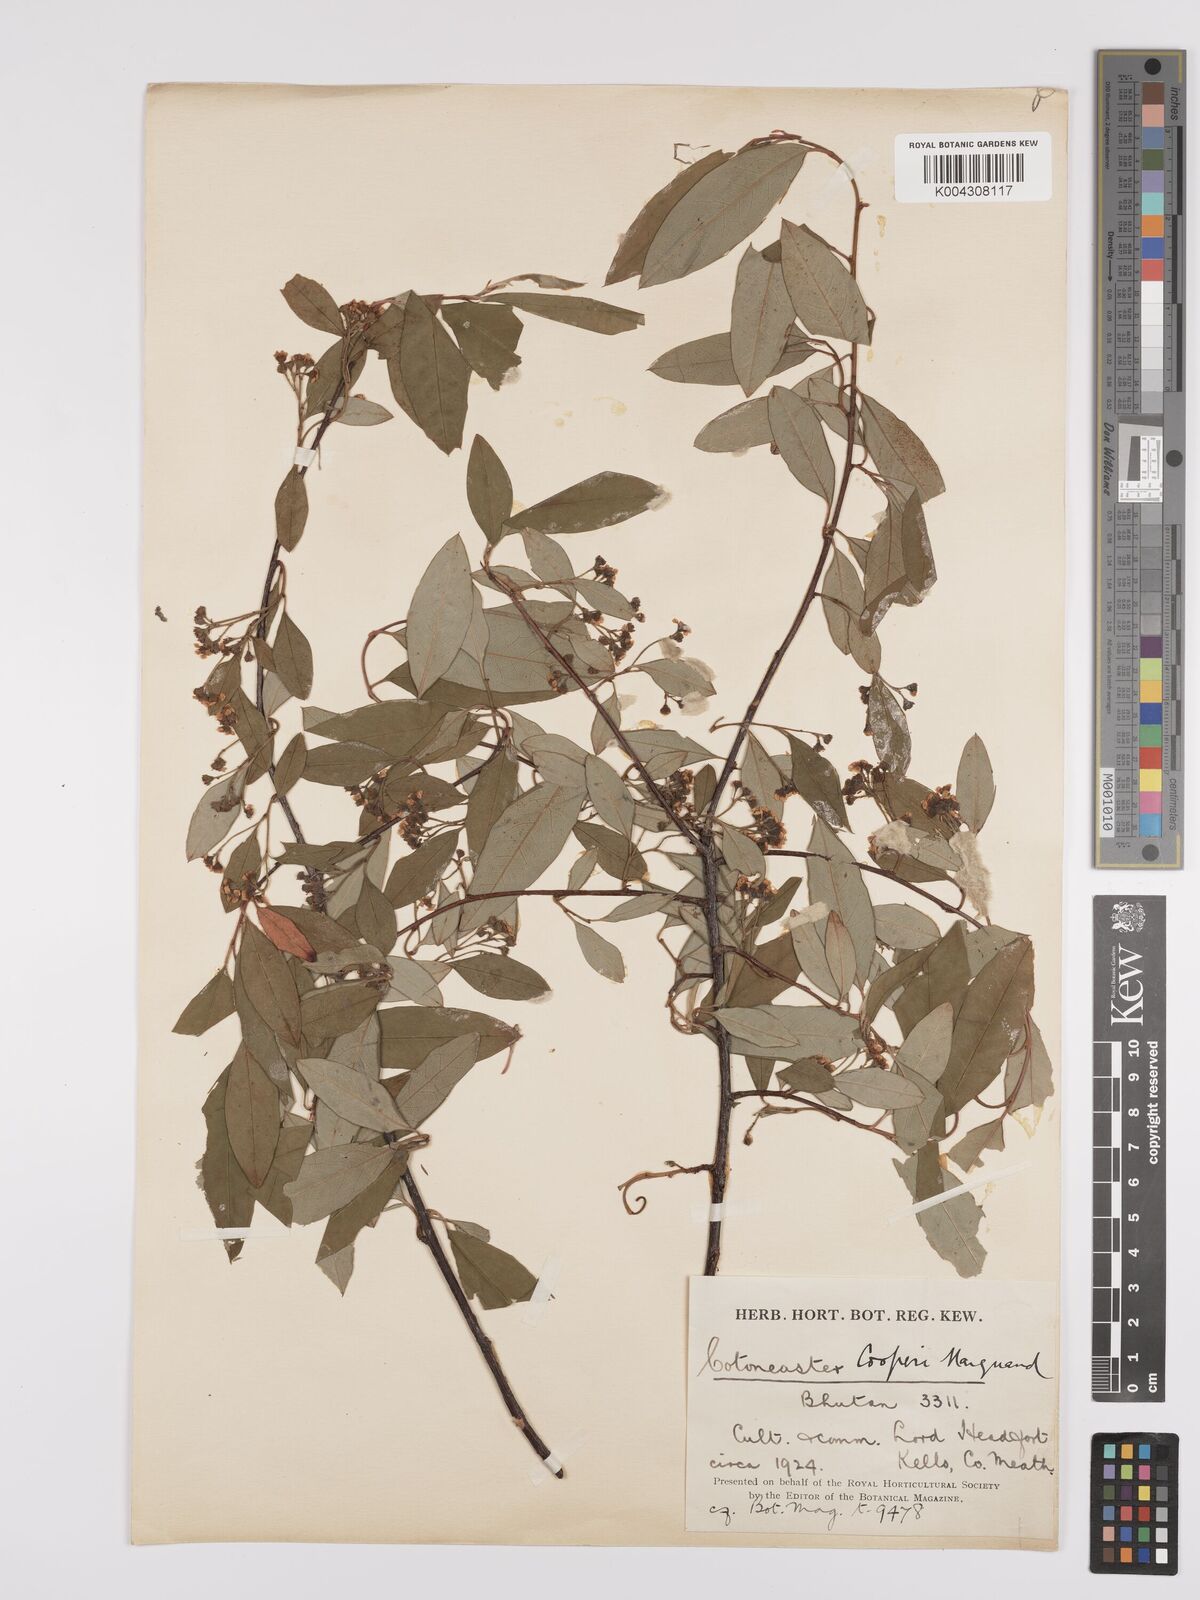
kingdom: Plantae
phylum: Tracheophyta
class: Magnoliopsida
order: Rosales
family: Rosaceae
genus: Cotoneaster
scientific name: Cotoneaster cooperi
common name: Cooper's cotoneaster
